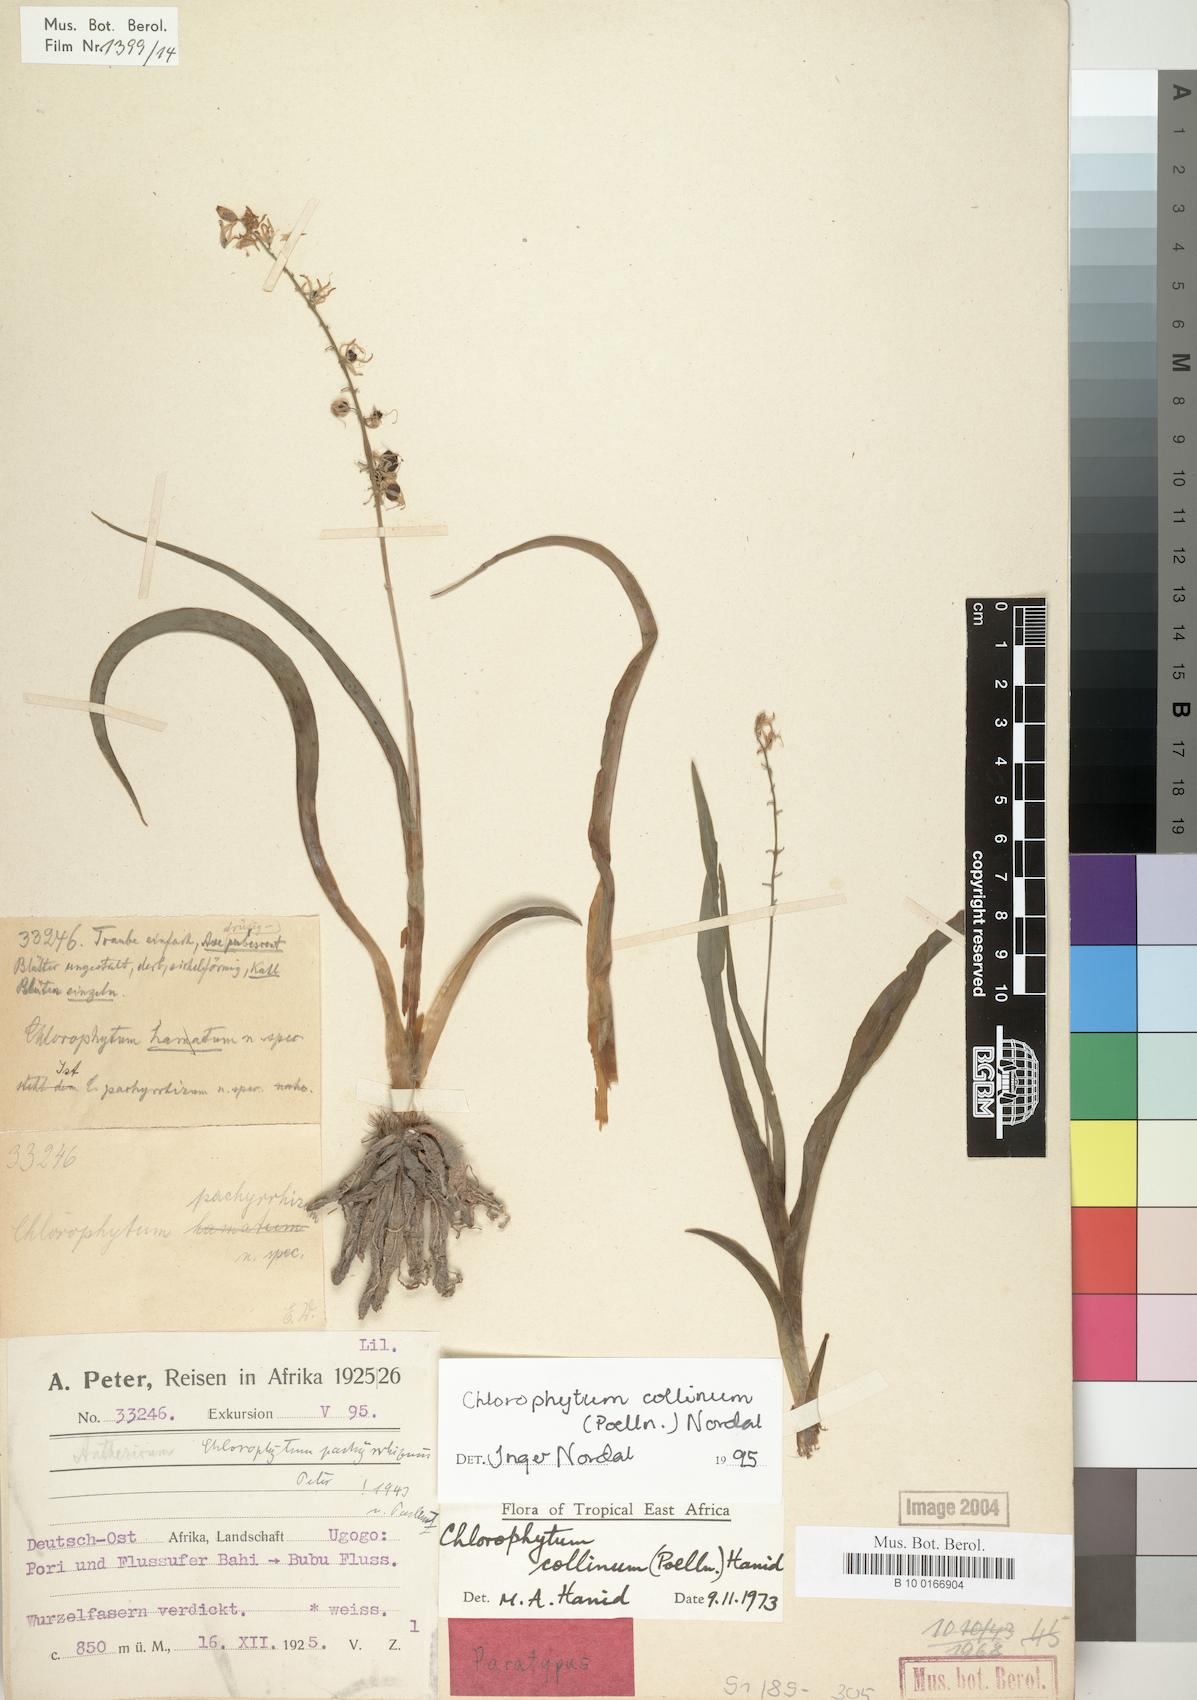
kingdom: Plantae
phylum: Tracheophyta
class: Liliopsida
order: Asparagales
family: Asparagaceae
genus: Chlorophytum
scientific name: Chlorophytum collinum
